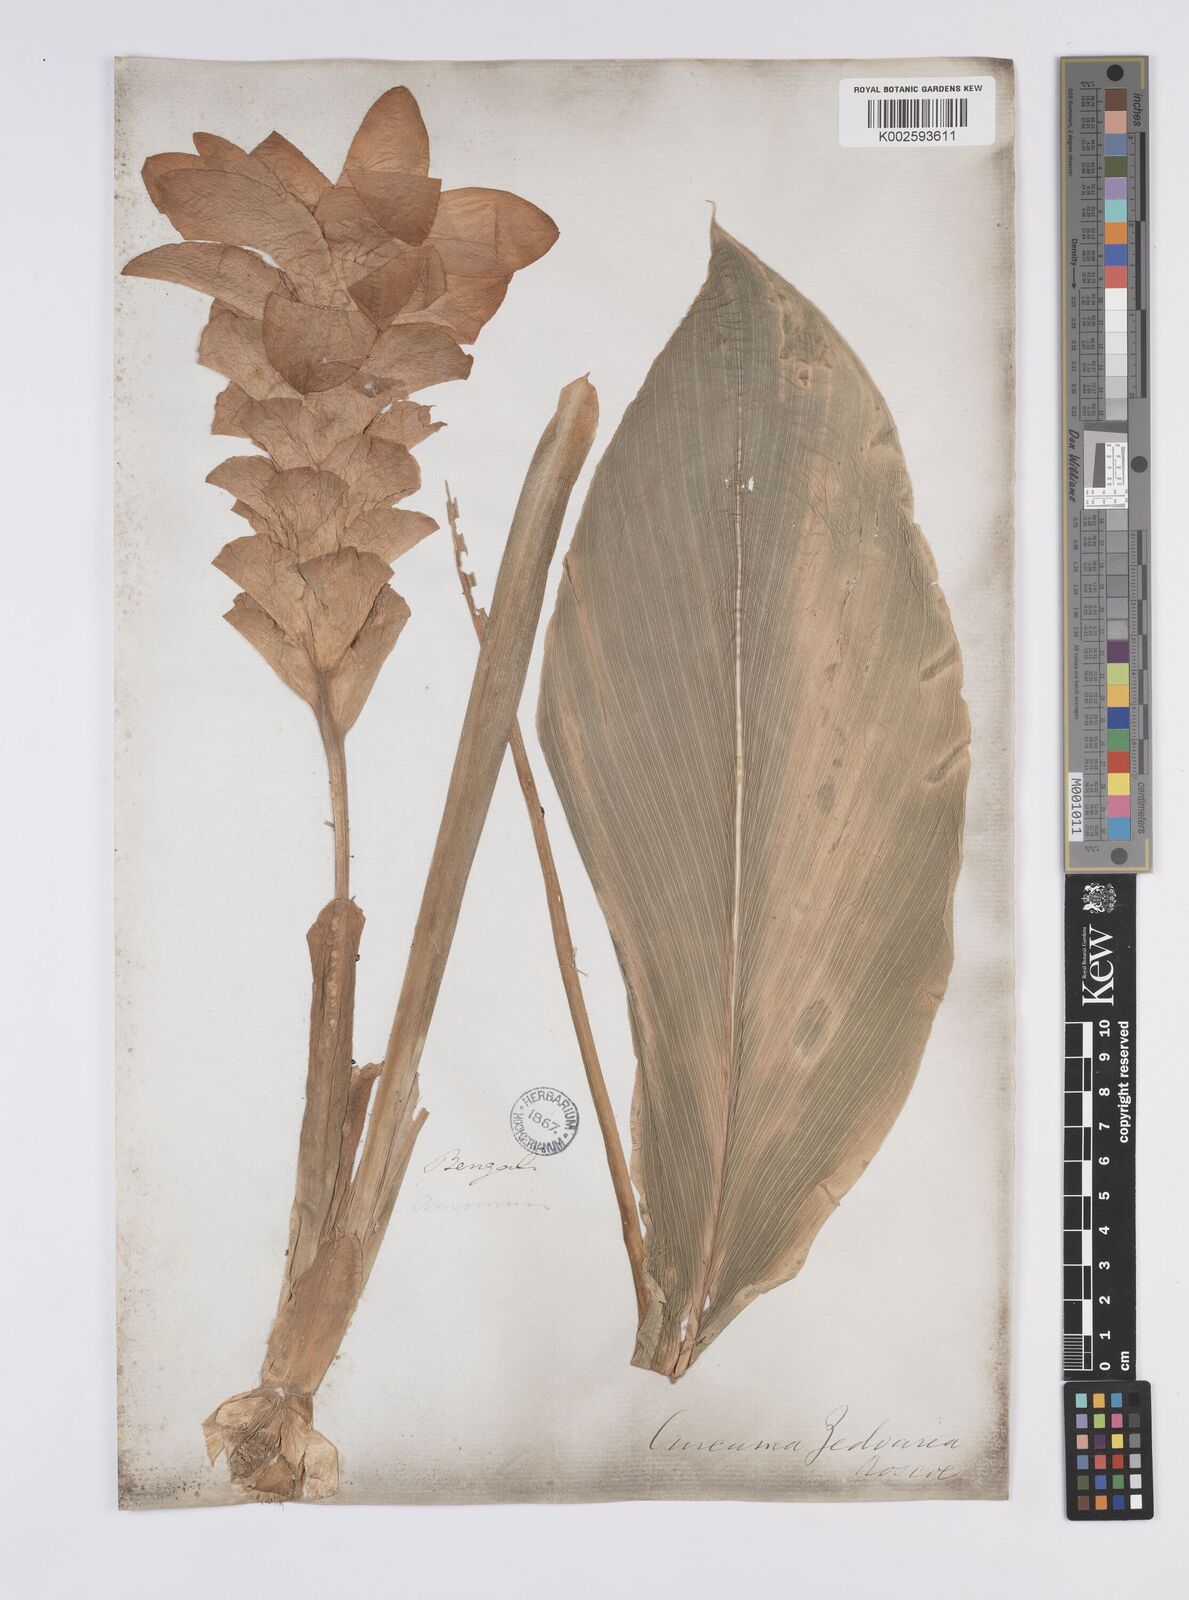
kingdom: Plantae
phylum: Tracheophyta
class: Liliopsida
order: Zingiberales
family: Zingiberaceae
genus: Curcuma
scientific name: Curcuma aromatica
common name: Wild turmeric
